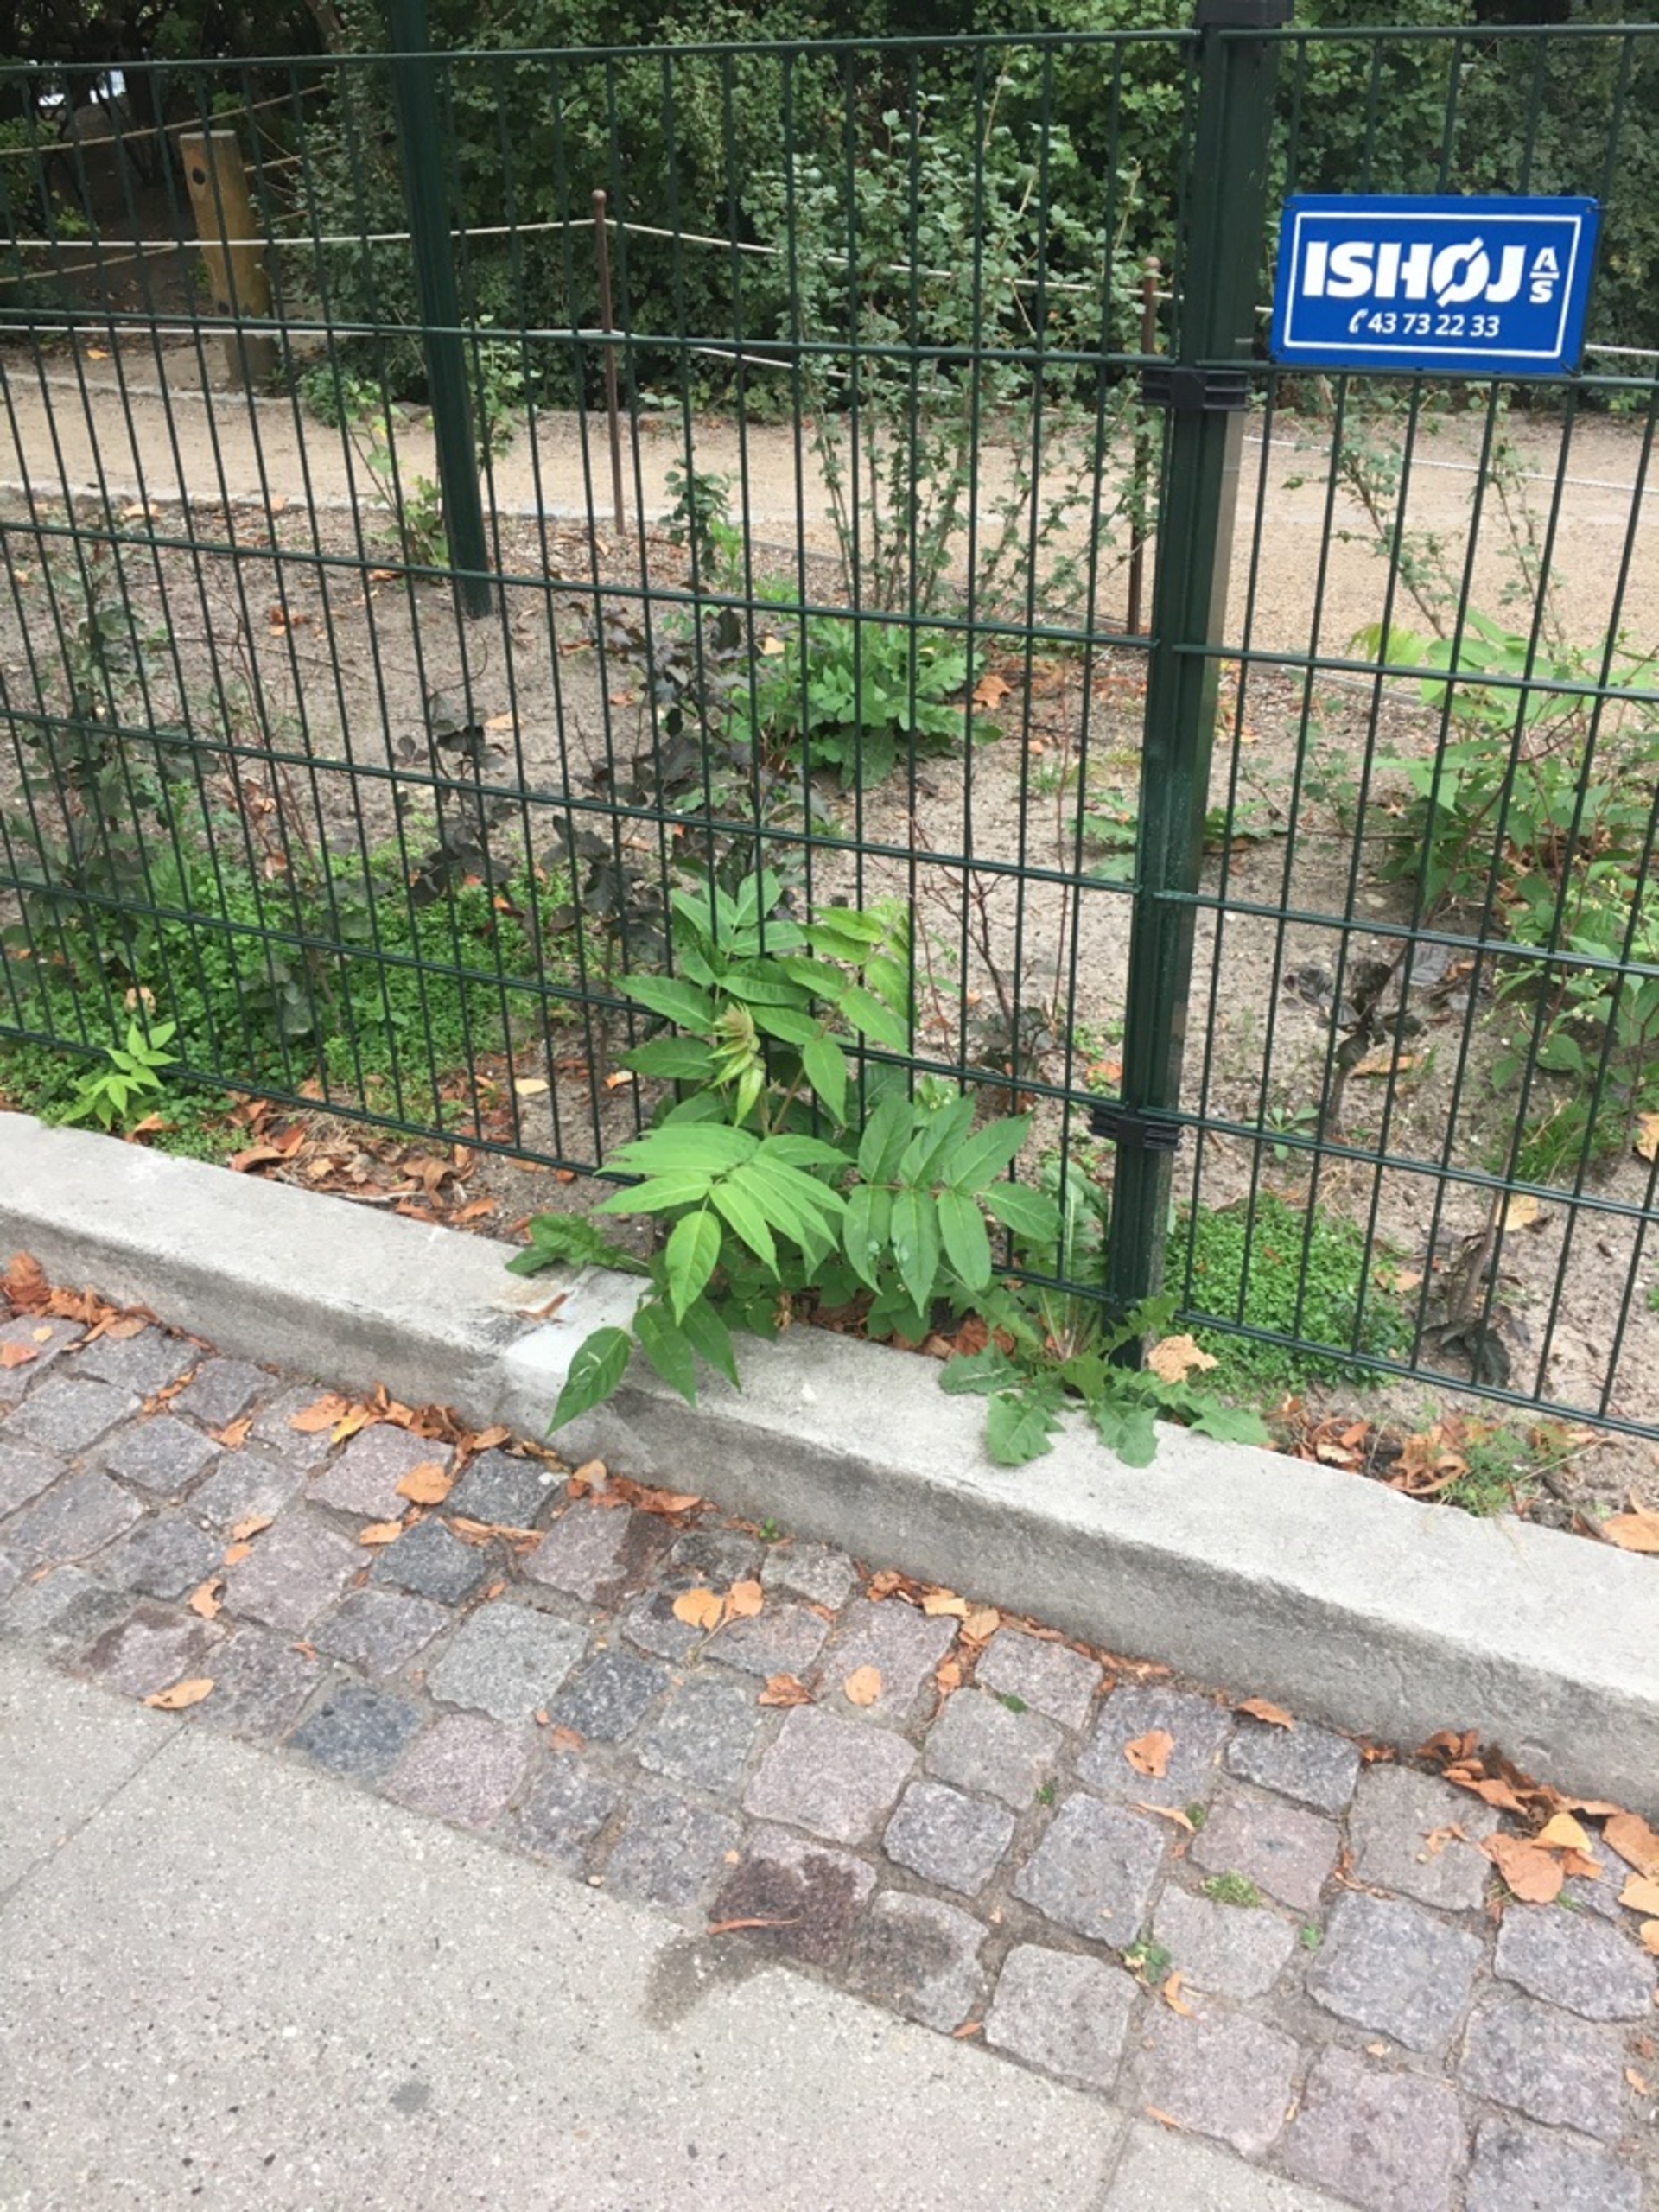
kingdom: Plantae
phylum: Tracheophyta
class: Magnoliopsida
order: Sapindales
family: Simaroubaceae
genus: Ailanthus
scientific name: Ailanthus altissima
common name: Skyrækker
